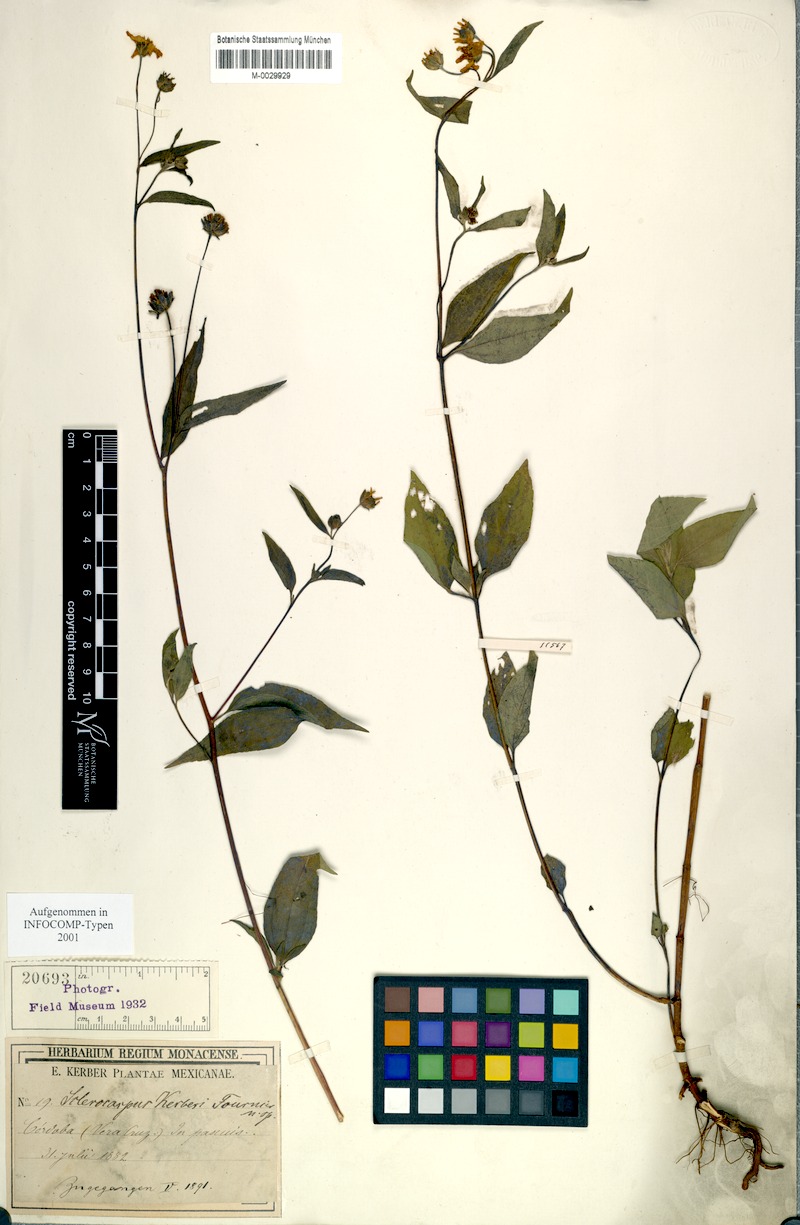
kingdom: Plantae
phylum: Tracheophyta
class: Magnoliopsida
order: Asterales
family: Asteraceae
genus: Aldama
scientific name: Aldama dentata
